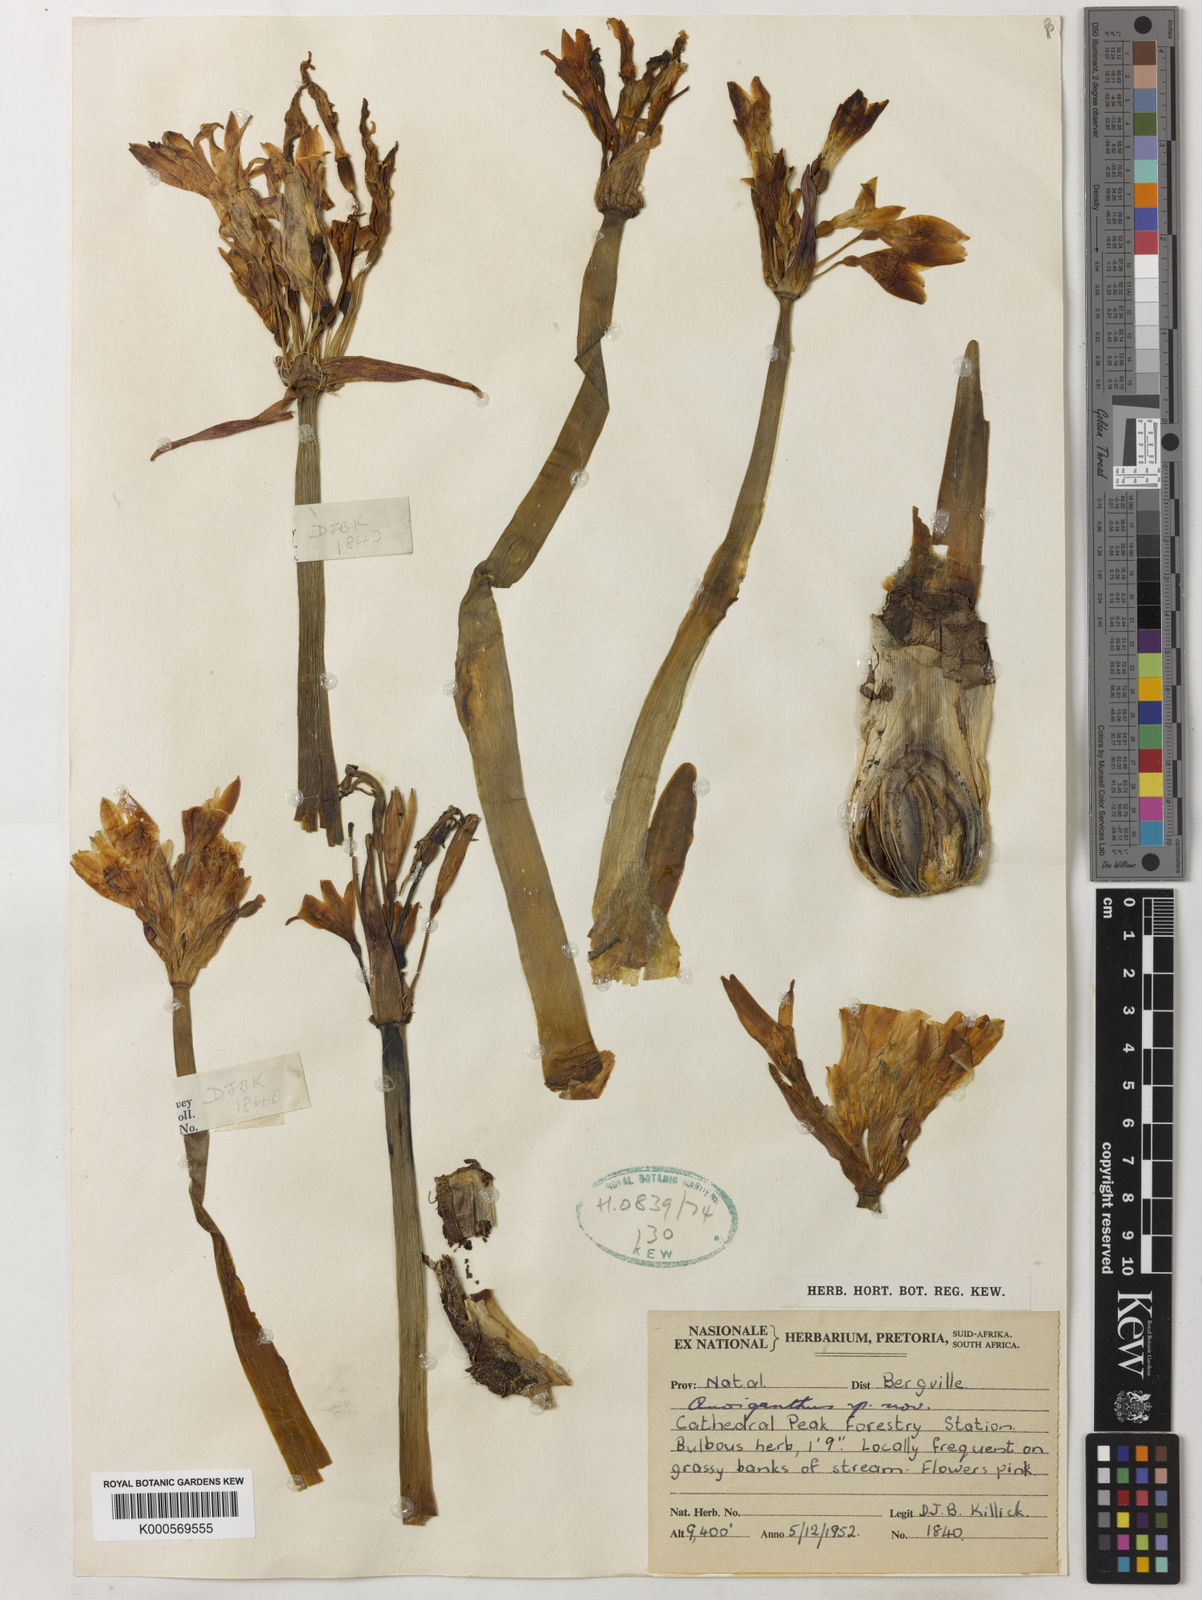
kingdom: Plantae
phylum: Tracheophyta
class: Liliopsida
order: Asparagales
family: Amaryllidaceae
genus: Cyrtanthus
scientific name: Cyrtanthus erubescens
